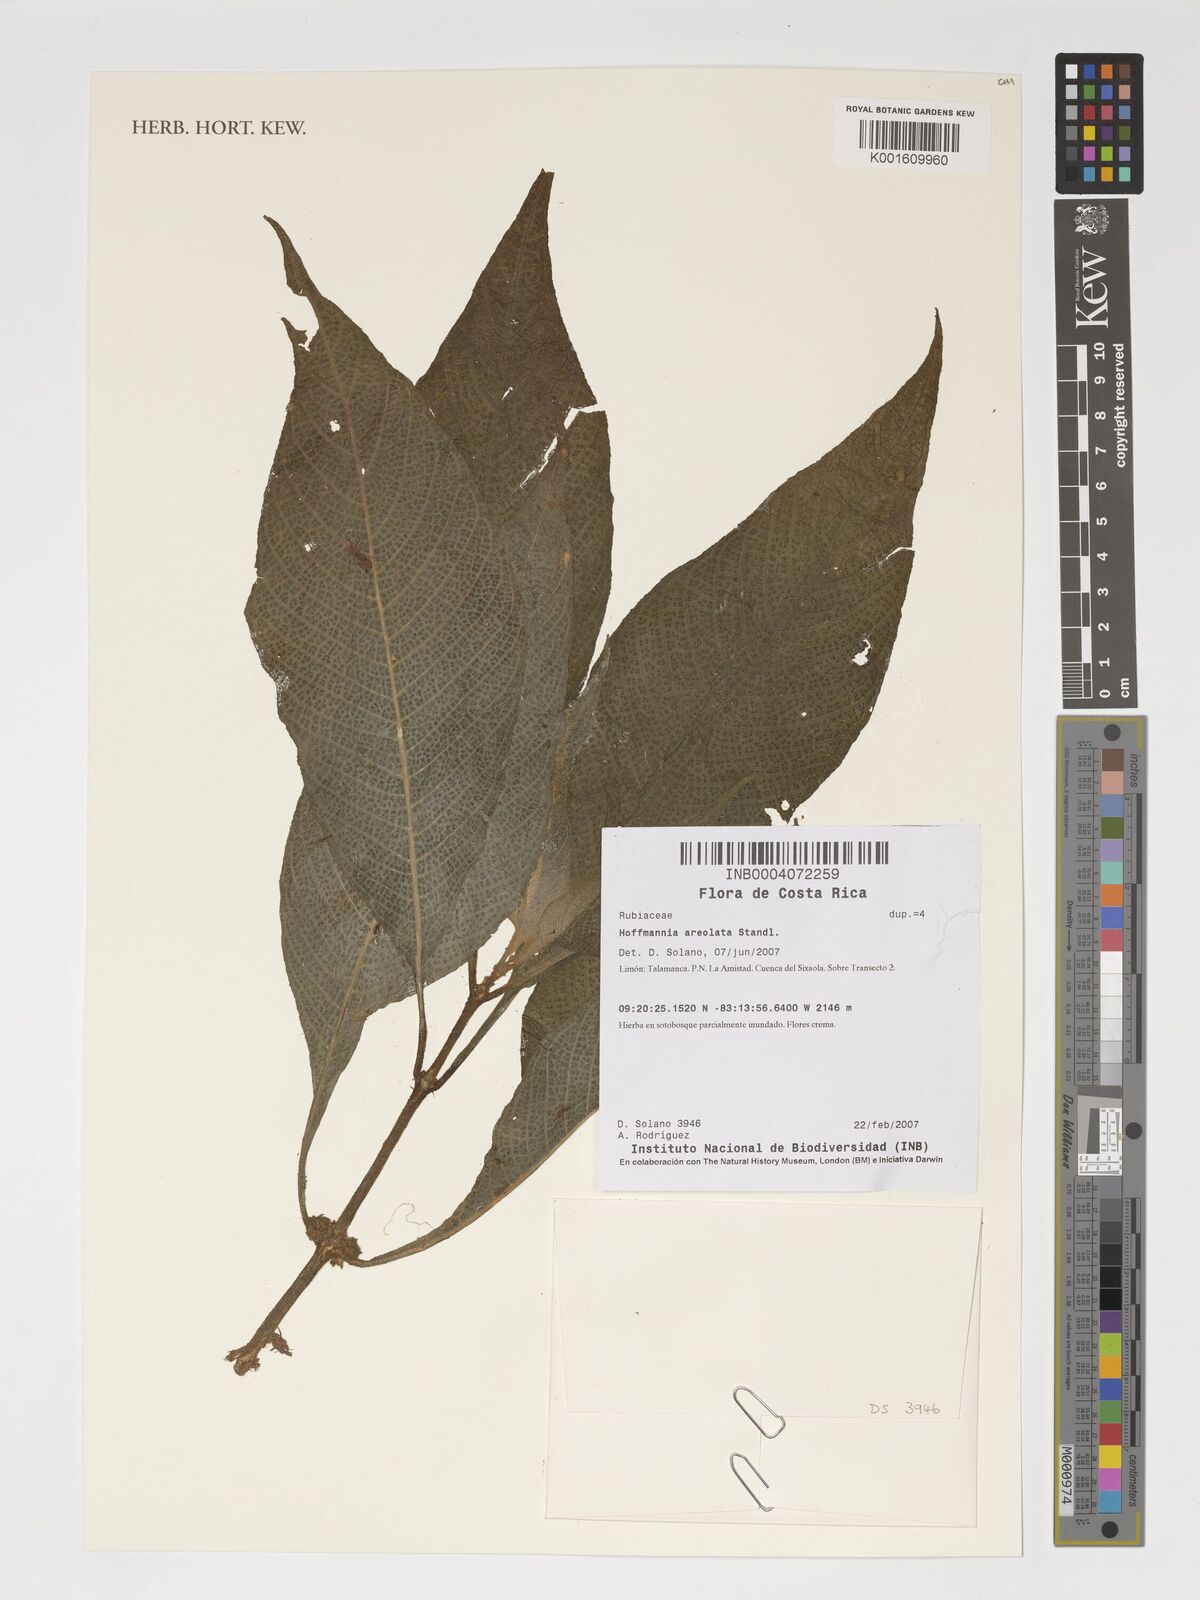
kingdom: Plantae
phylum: Tracheophyta
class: Magnoliopsida
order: Gentianales
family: Rubiaceae
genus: Hoffmannia
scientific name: Hoffmannia areolata
